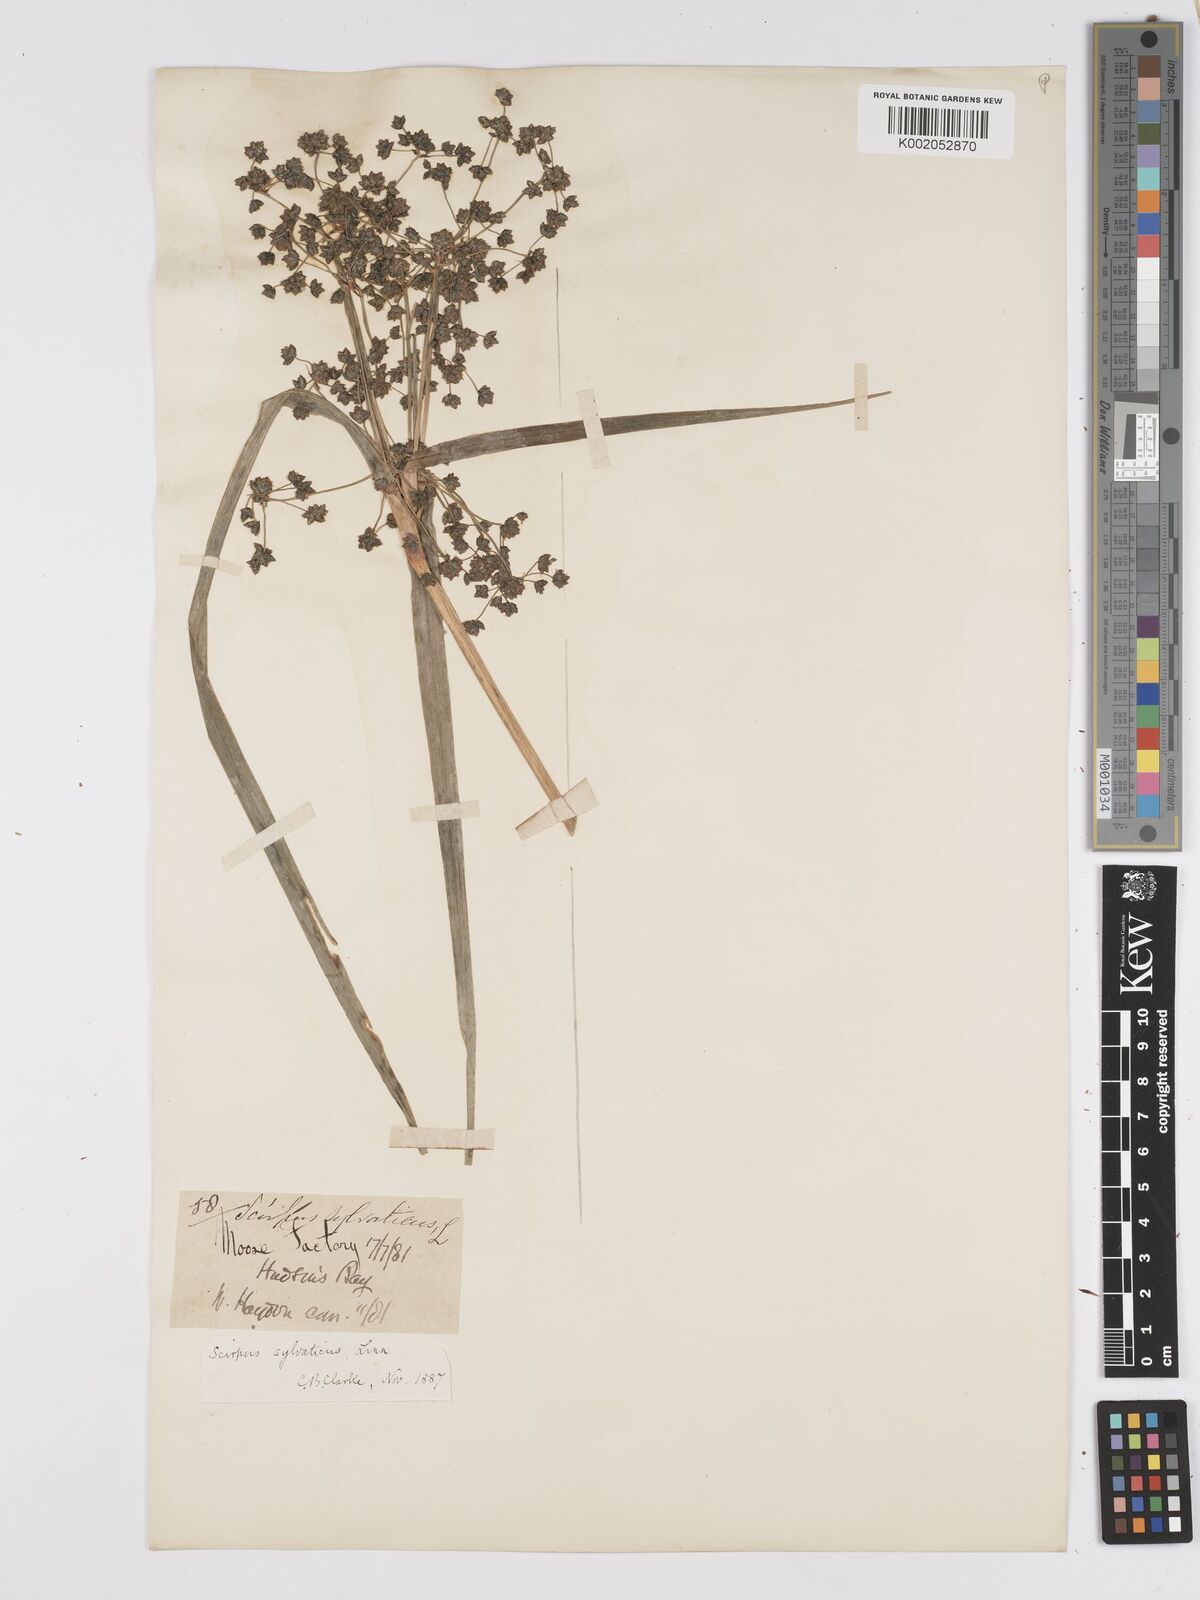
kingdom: Plantae
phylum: Tracheophyta
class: Liliopsida
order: Poales
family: Cyperaceae
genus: Scirpus
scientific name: Scirpus sylvaticus
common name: Wood club-rush
